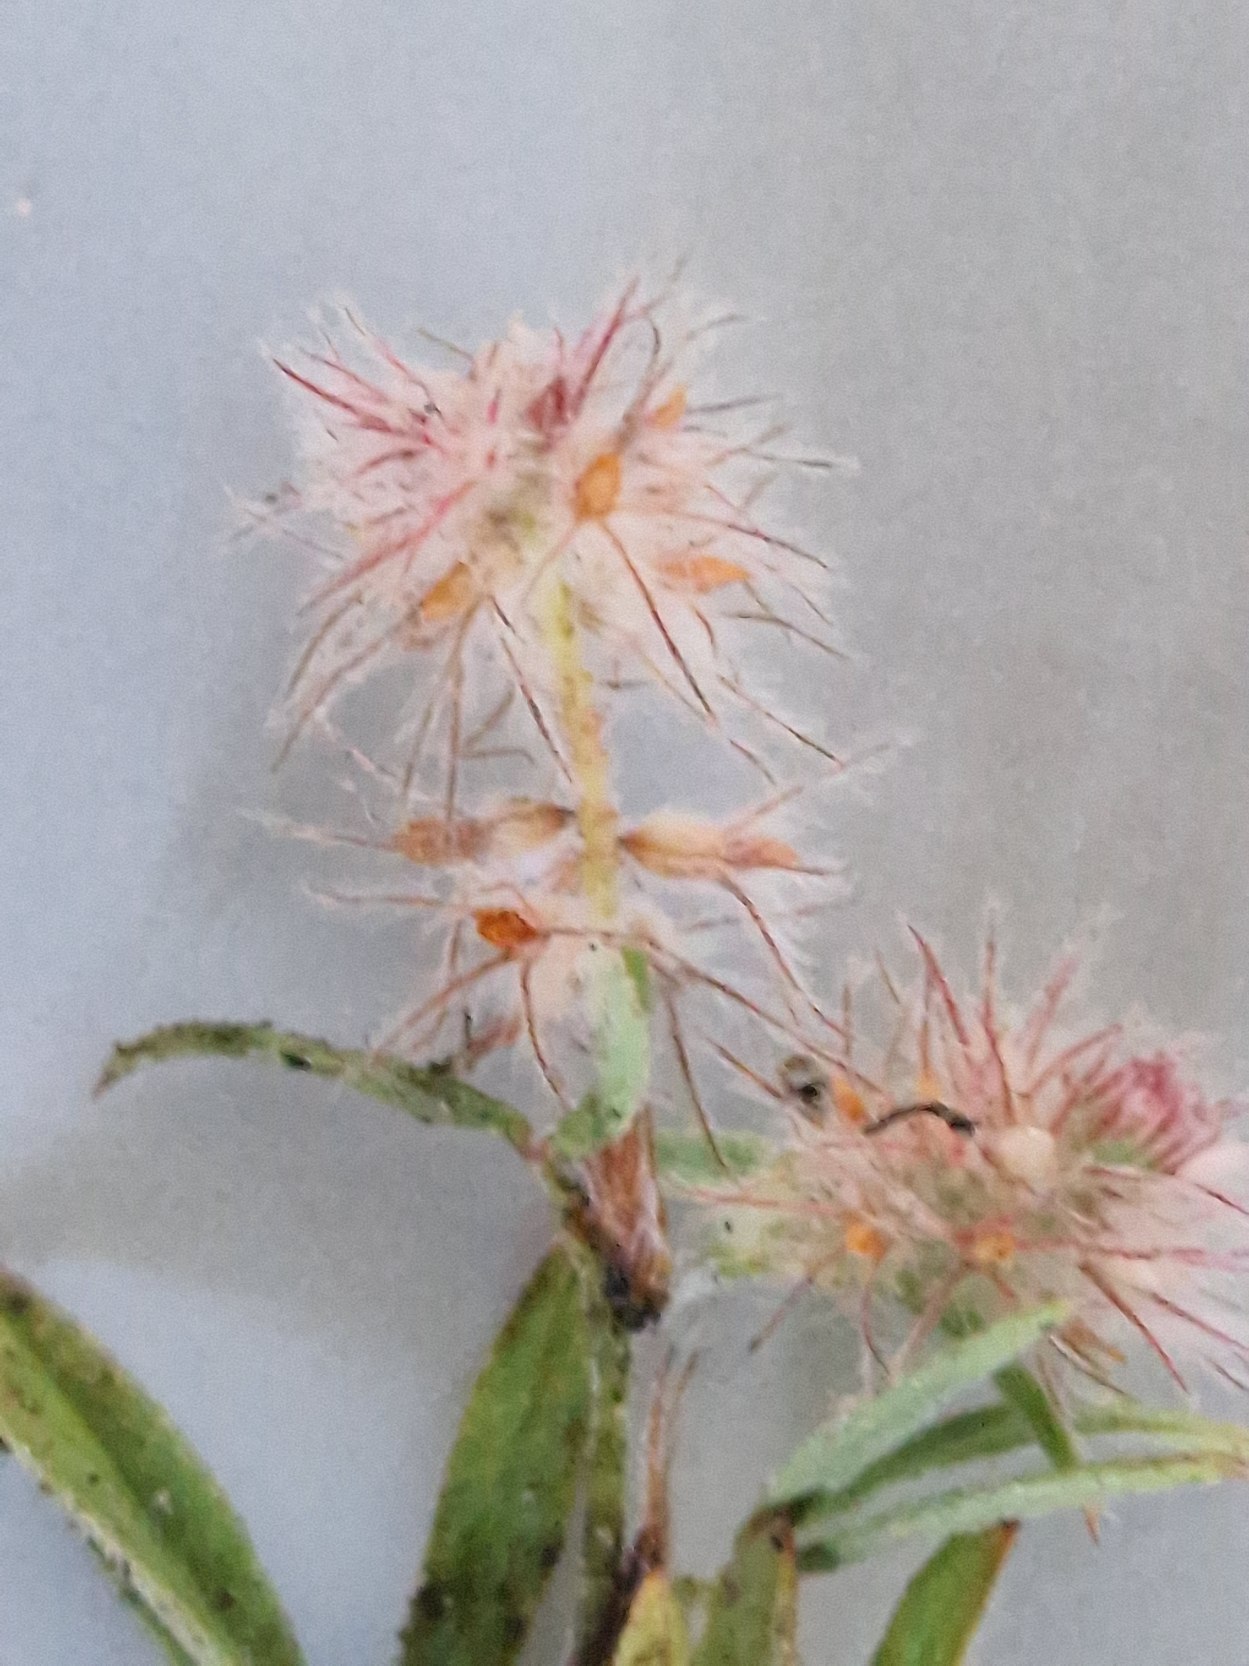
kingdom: Plantae
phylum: Tracheophyta
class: Magnoliopsida
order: Fabales
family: Fabaceae
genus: Trifolium
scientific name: Trifolium arvense
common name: Hare-kløver
